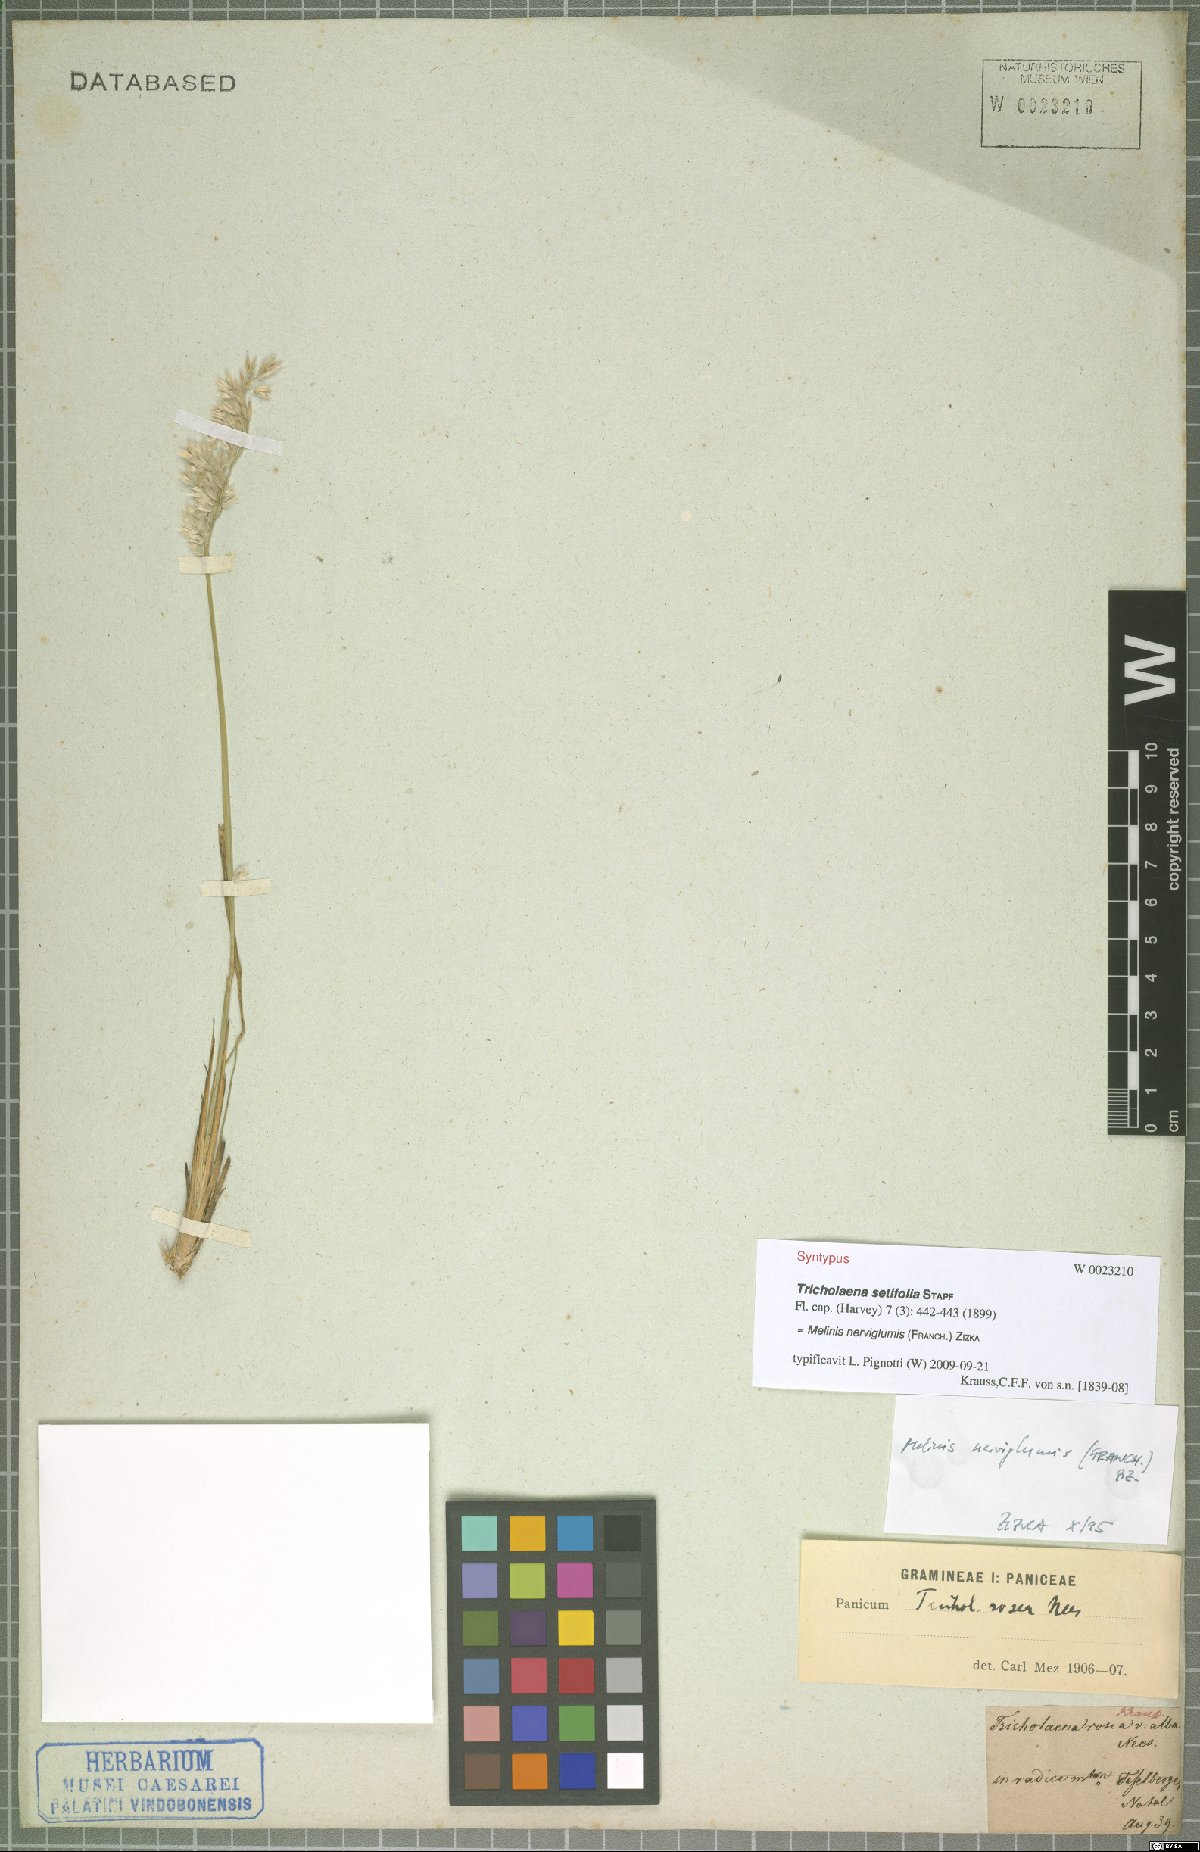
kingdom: Plantae
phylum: Tracheophyta
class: Liliopsida
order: Poales
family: Poaceae
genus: Melinis
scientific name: Melinis nerviglumis
